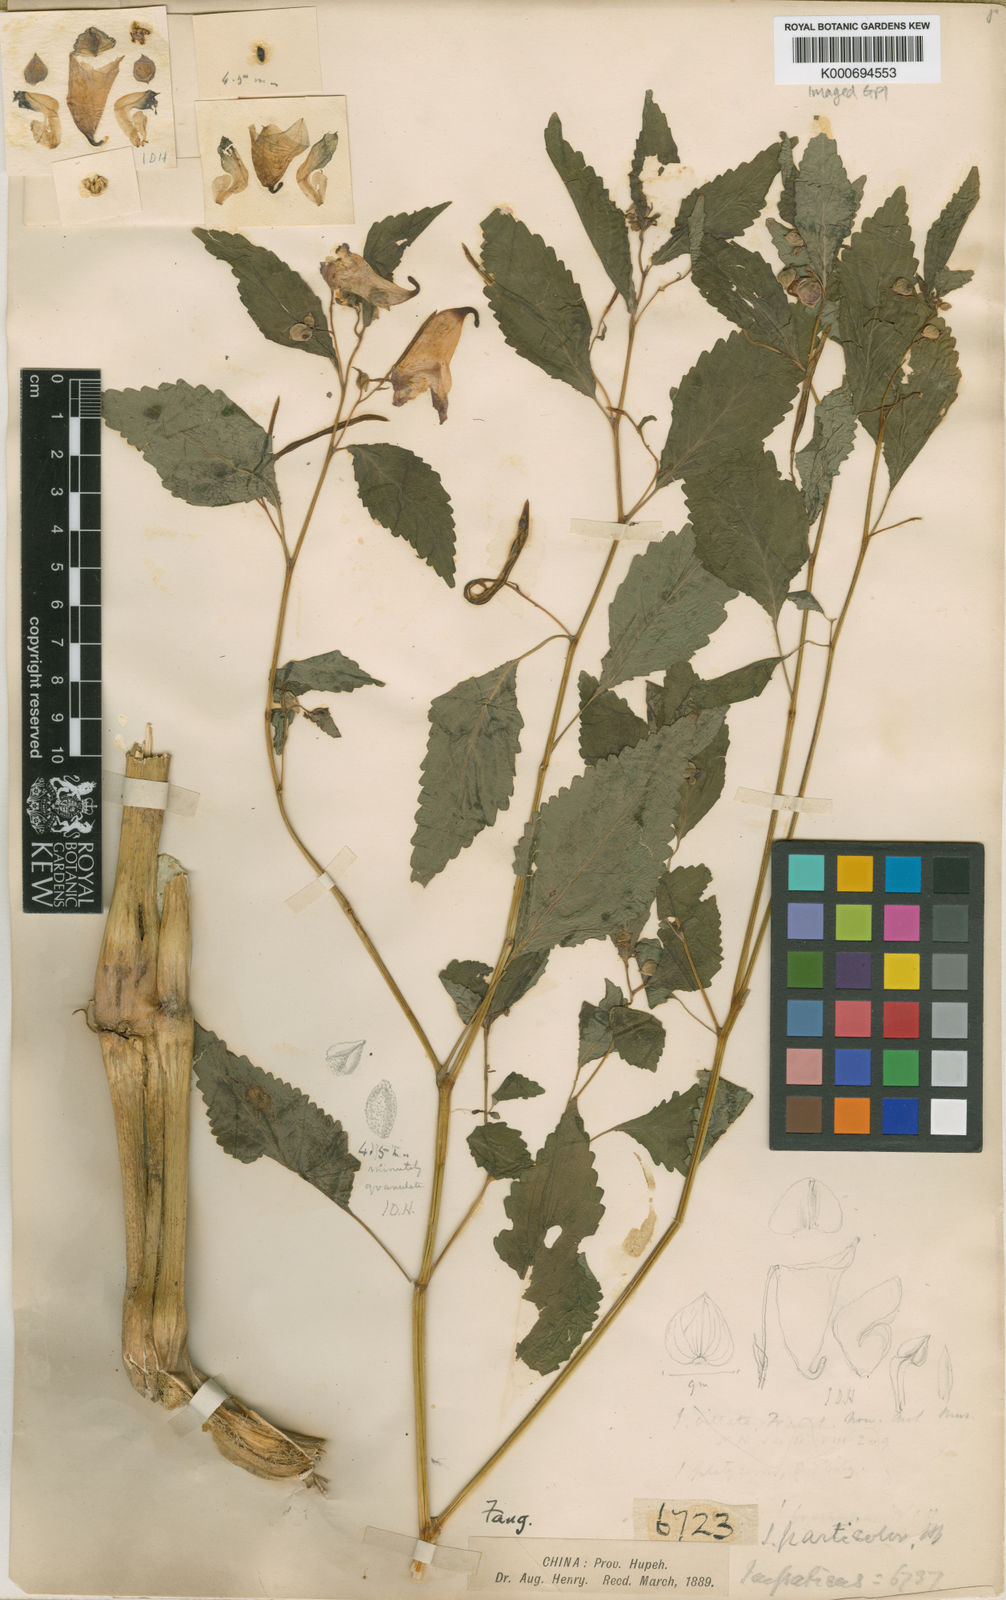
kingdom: Plantae
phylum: Tracheophyta
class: Magnoliopsida
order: Ericales
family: Balsaminaceae
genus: Impatiens
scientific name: Impatiens
